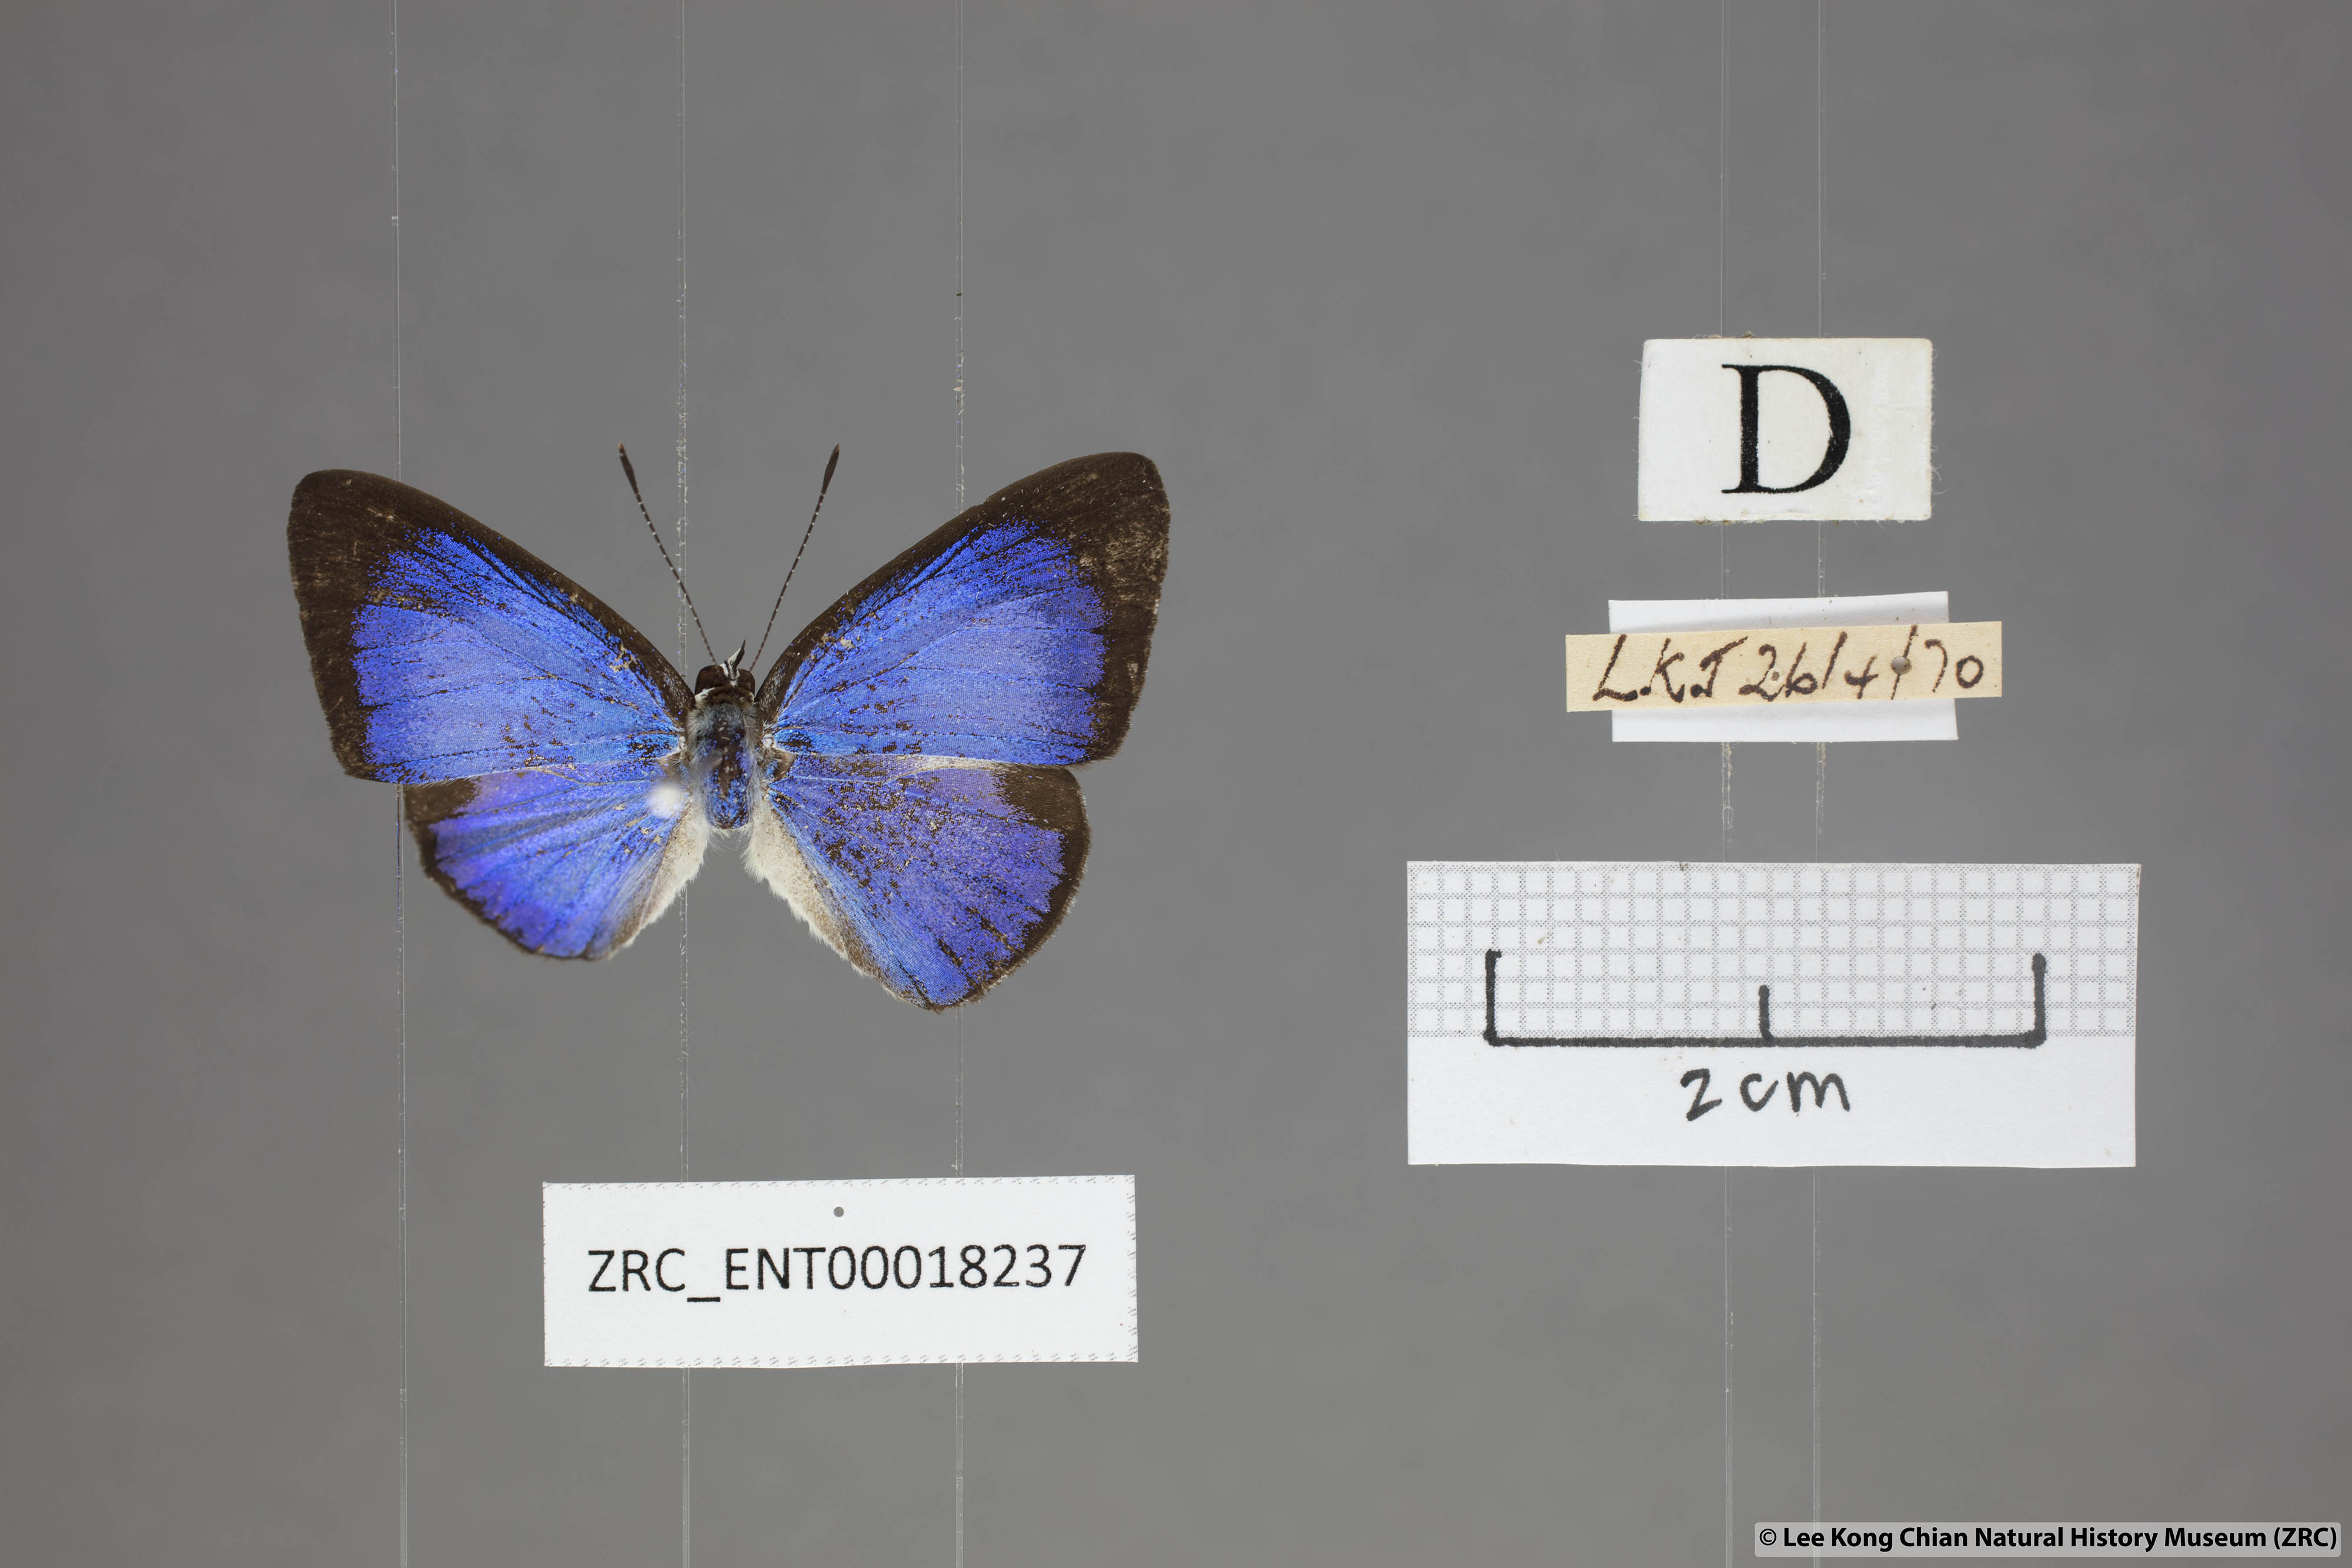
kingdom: Animalia
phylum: Arthropoda
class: Insecta
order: Lepidoptera
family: Lycaenidae
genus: Lycaenopsis
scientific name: Lycaenopsis haraldus
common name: Felder's hedge blue
